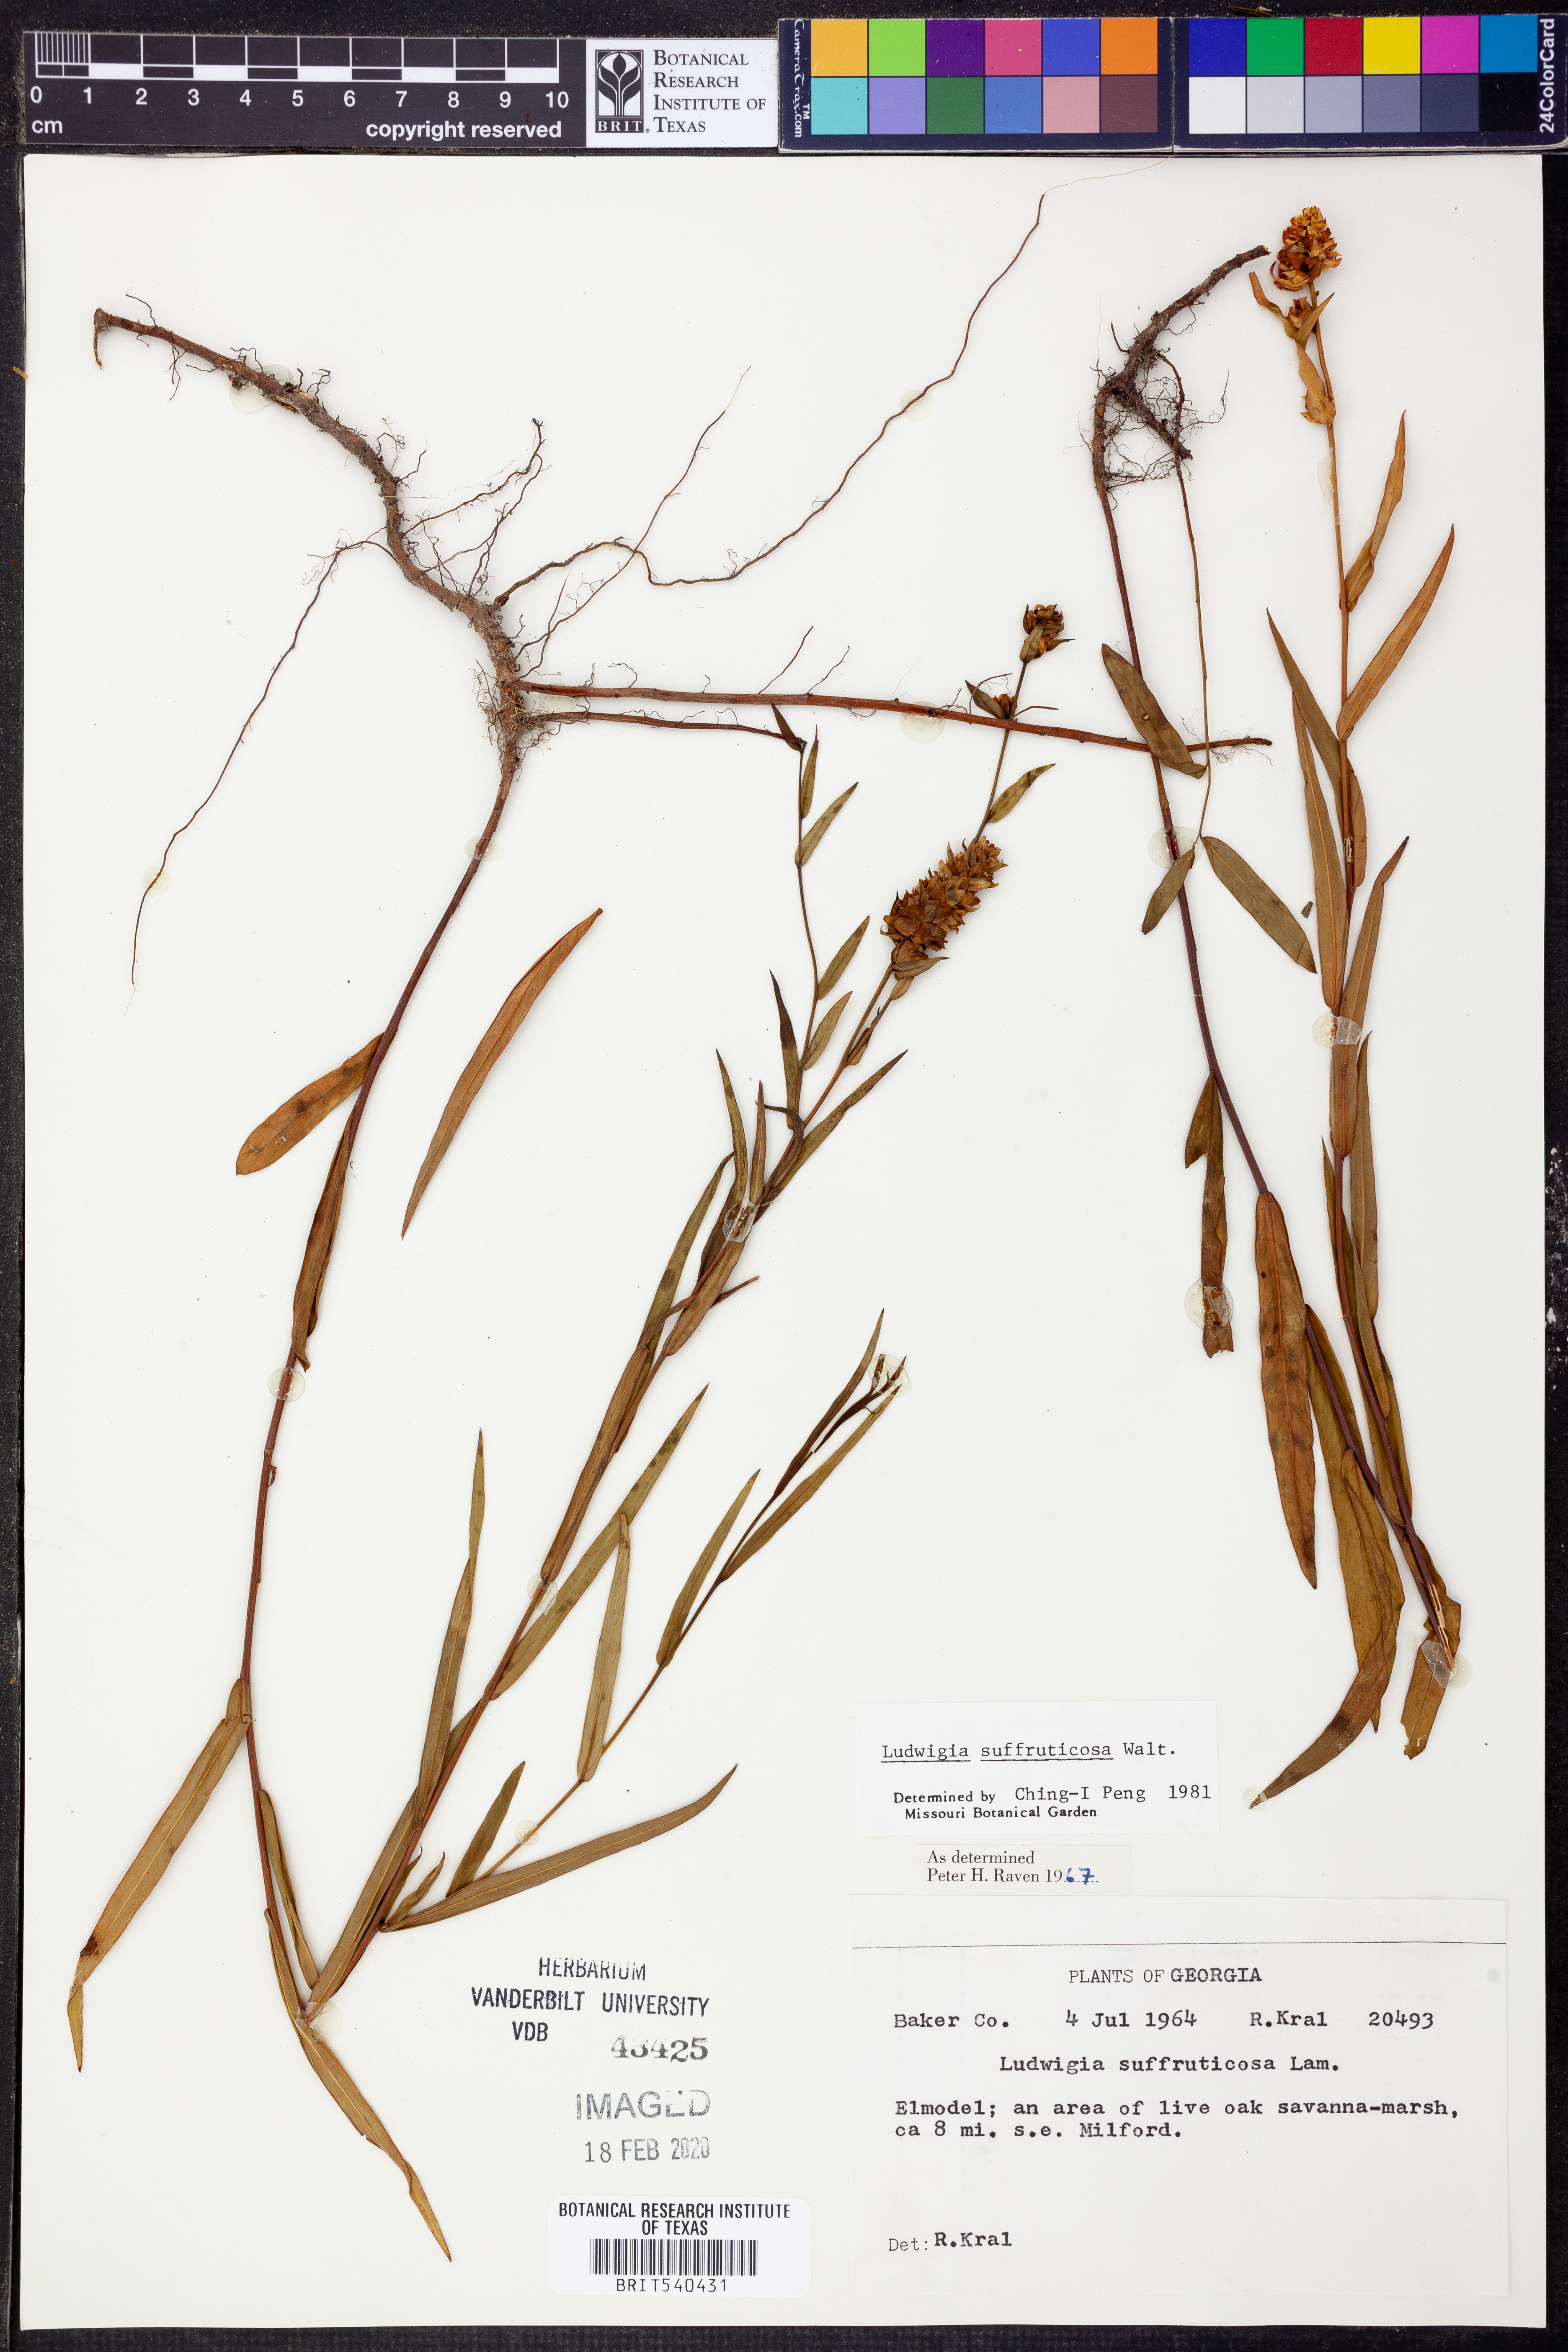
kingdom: Plantae
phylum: Tracheophyta
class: Magnoliopsida
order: Myrtales
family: Onagraceae
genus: Ludwigia
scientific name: Ludwigia suffruticosa
